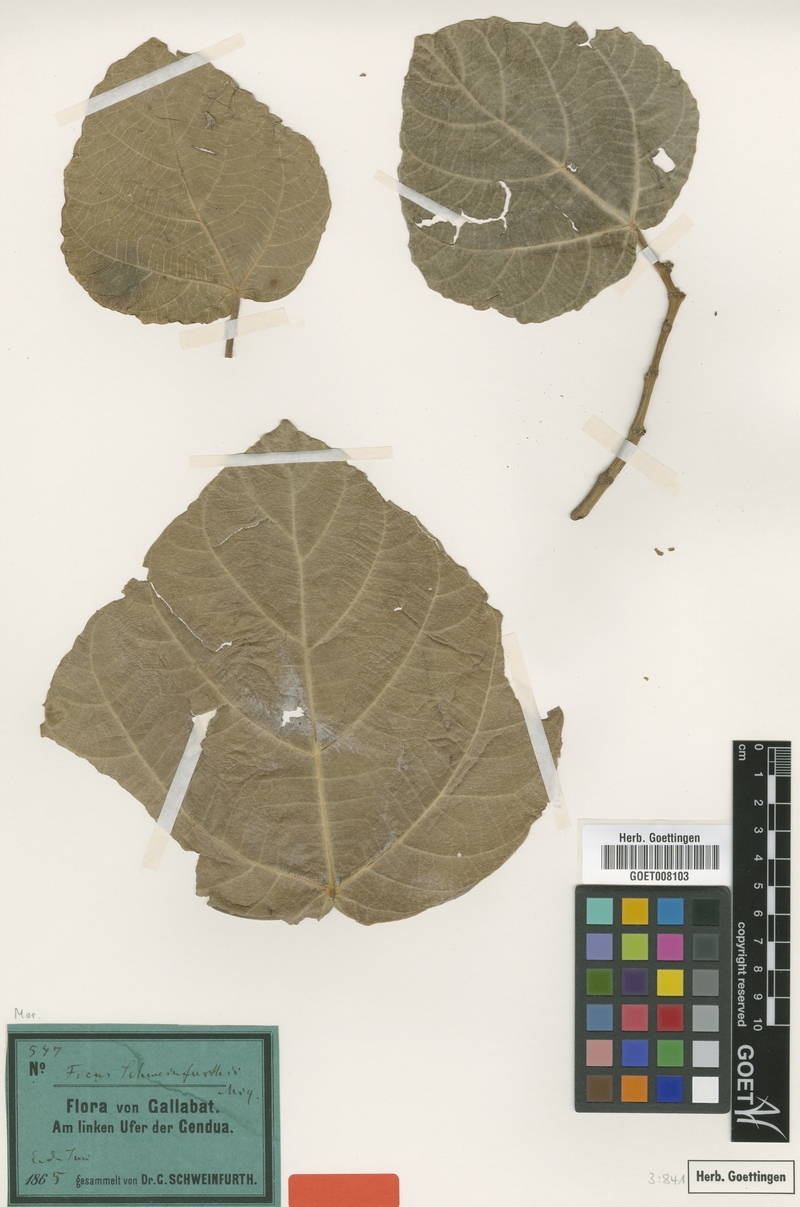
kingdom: Plantae
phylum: Tracheophyta
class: Magnoliopsida
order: Rosales
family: Moraceae
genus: Ficus
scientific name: Ficus vallis-choudae
